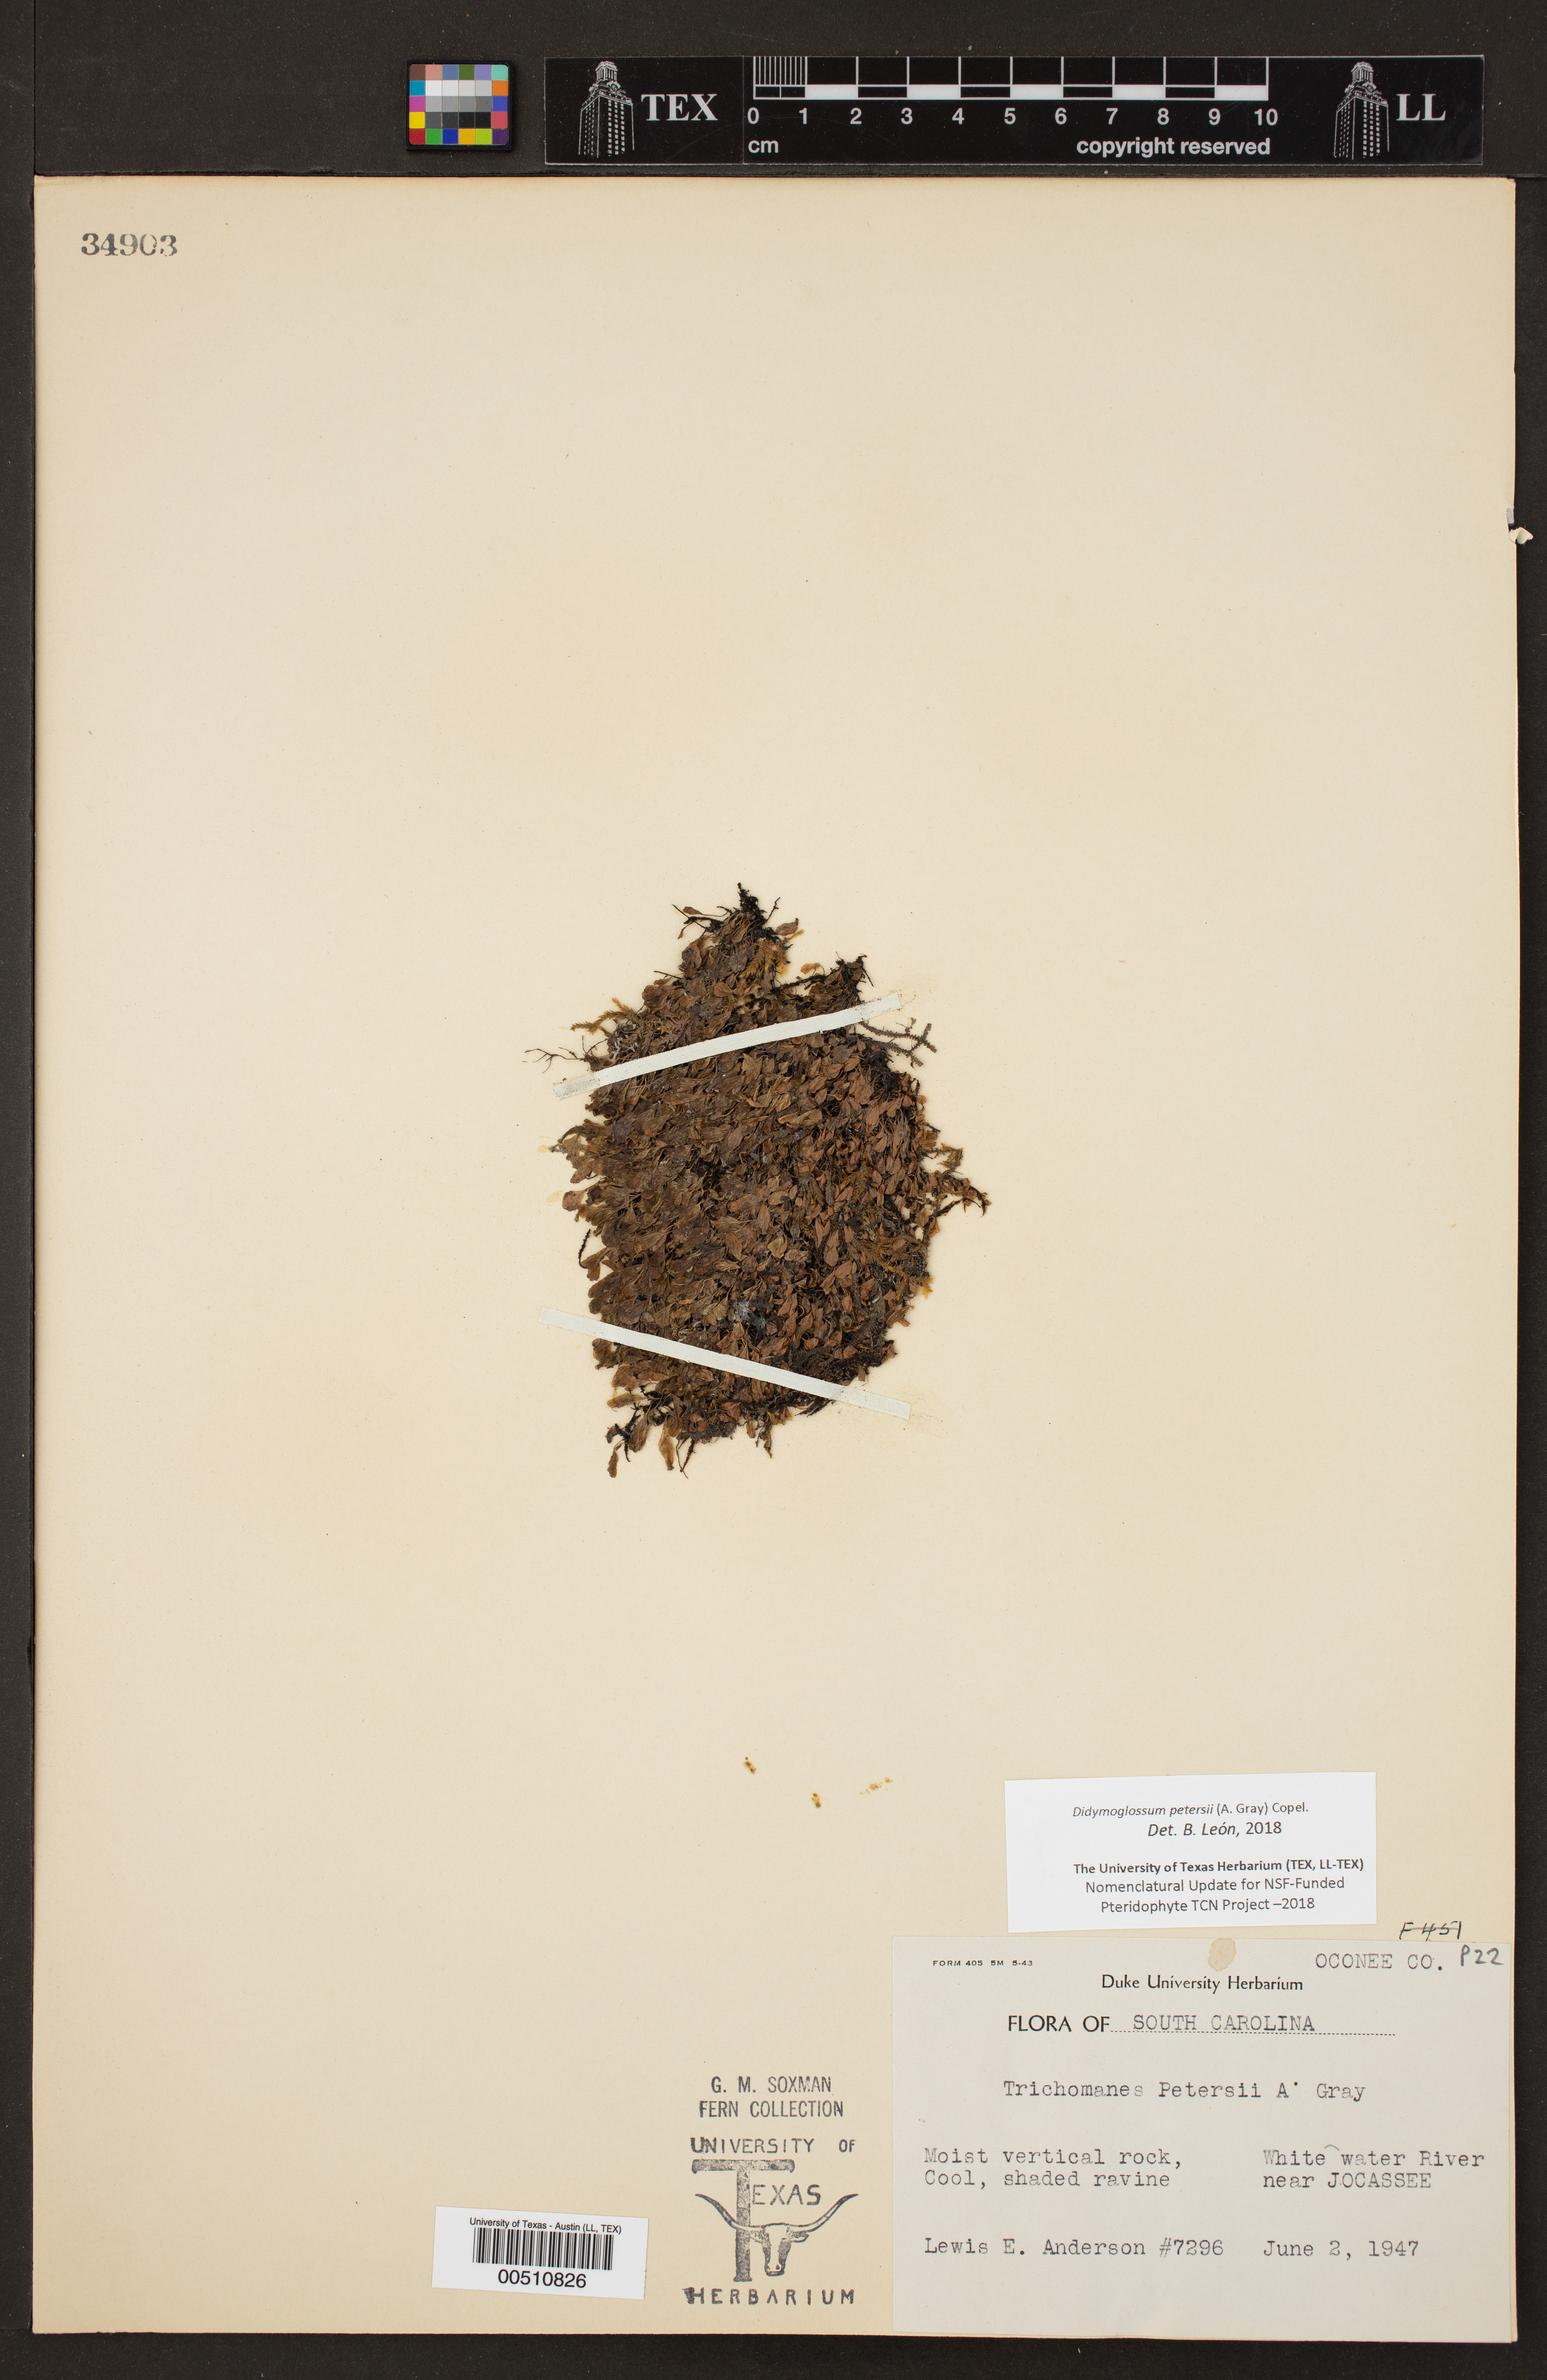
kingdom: Plantae
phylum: Tracheophyta
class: Polypodiopsida
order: Hymenophyllales
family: Hymenophyllaceae
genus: Didymoglossum
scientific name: Didymoglossum petersii
